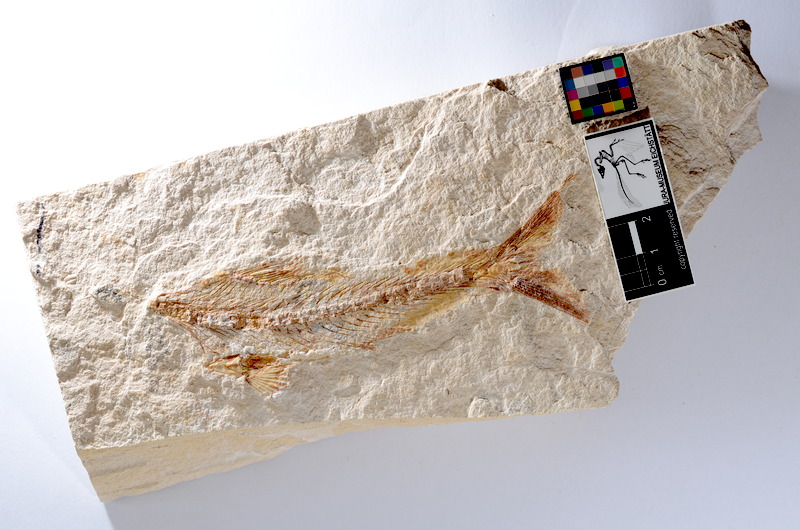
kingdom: Animalia
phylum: Chordata
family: Ascalaboidae
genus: Tharsis
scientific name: Tharsis dubius
